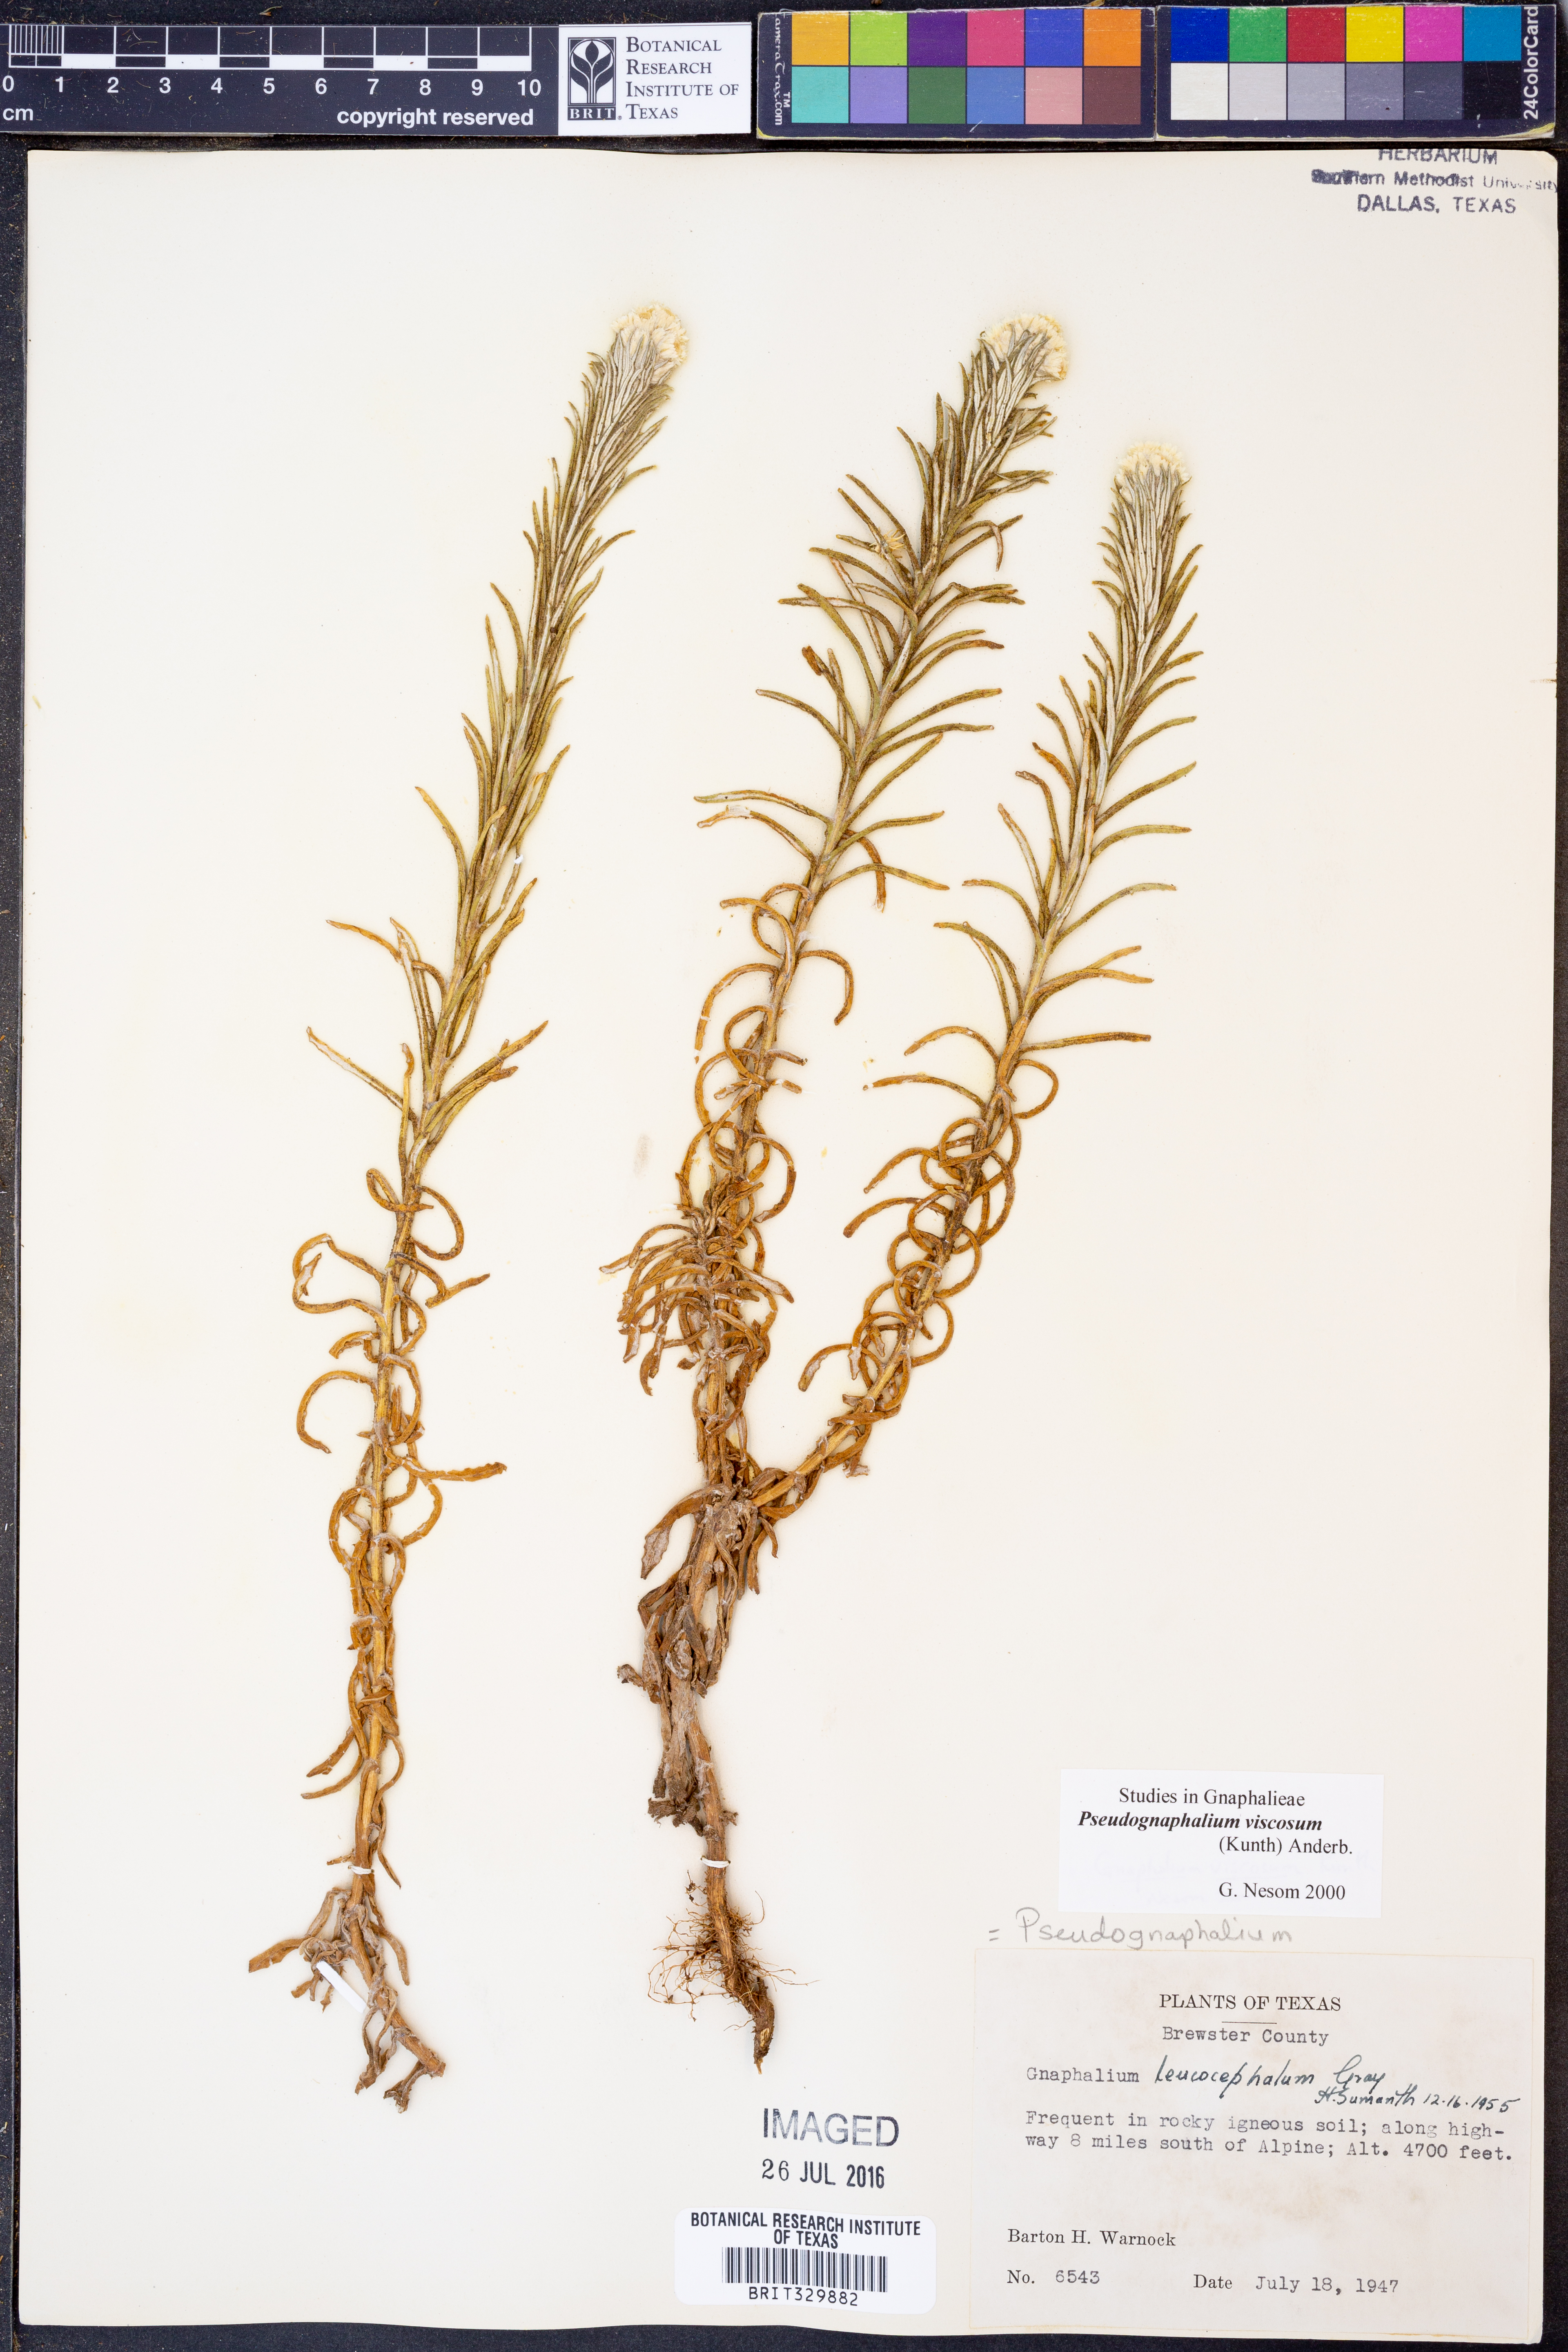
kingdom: Plantae
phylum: Tracheophyta
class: Magnoliopsida
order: Asterales
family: Asteraceae
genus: Pseudognaphalium
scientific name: Pseudognaphalium viscosum
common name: Sticky rabbit-tobacco
